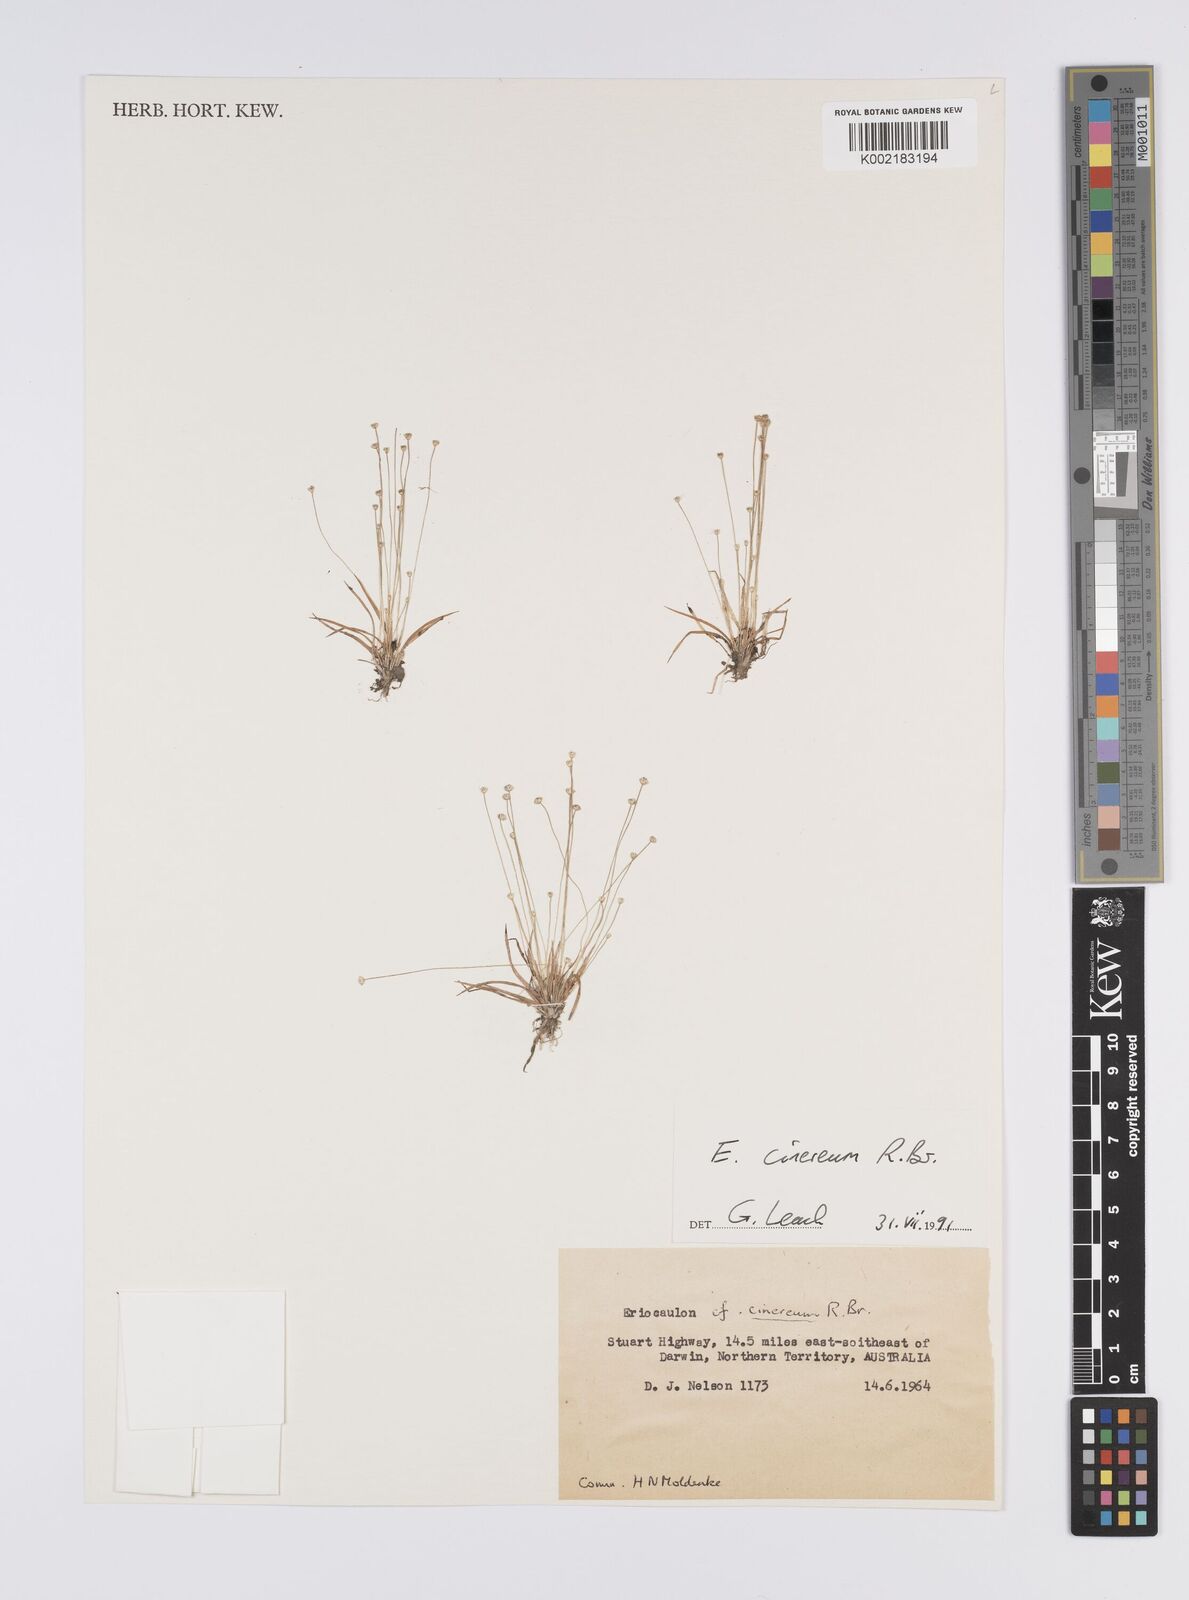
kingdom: Plantae
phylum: Tracheophyta
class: Liliopsida
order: Poales
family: Eriocaulaceae
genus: Eriocaulon
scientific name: Eriocaulon cinereum
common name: Ashy pipewort
